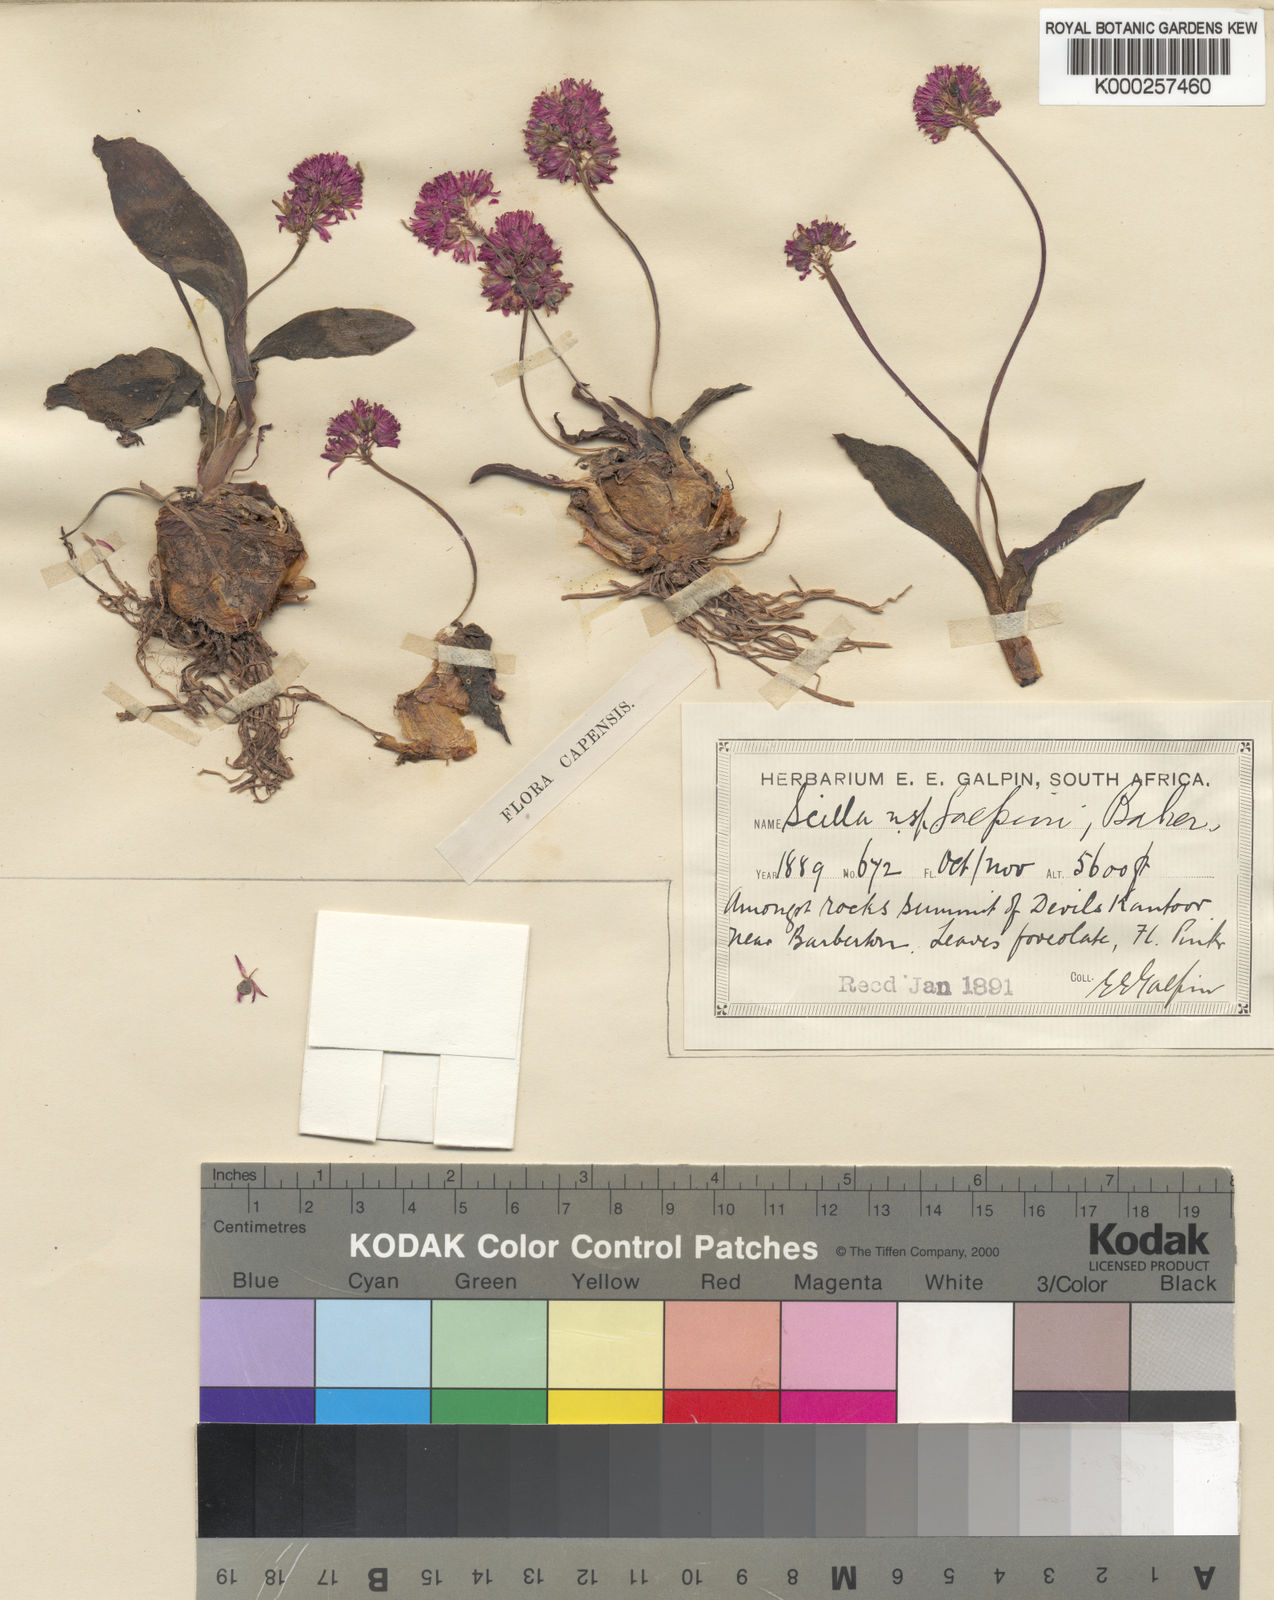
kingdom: Plantae
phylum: Tracheophyta
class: Liliopsida
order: Asparagales
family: Asparagaceae
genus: Ledebouria
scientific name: Ledebouria galpinii
